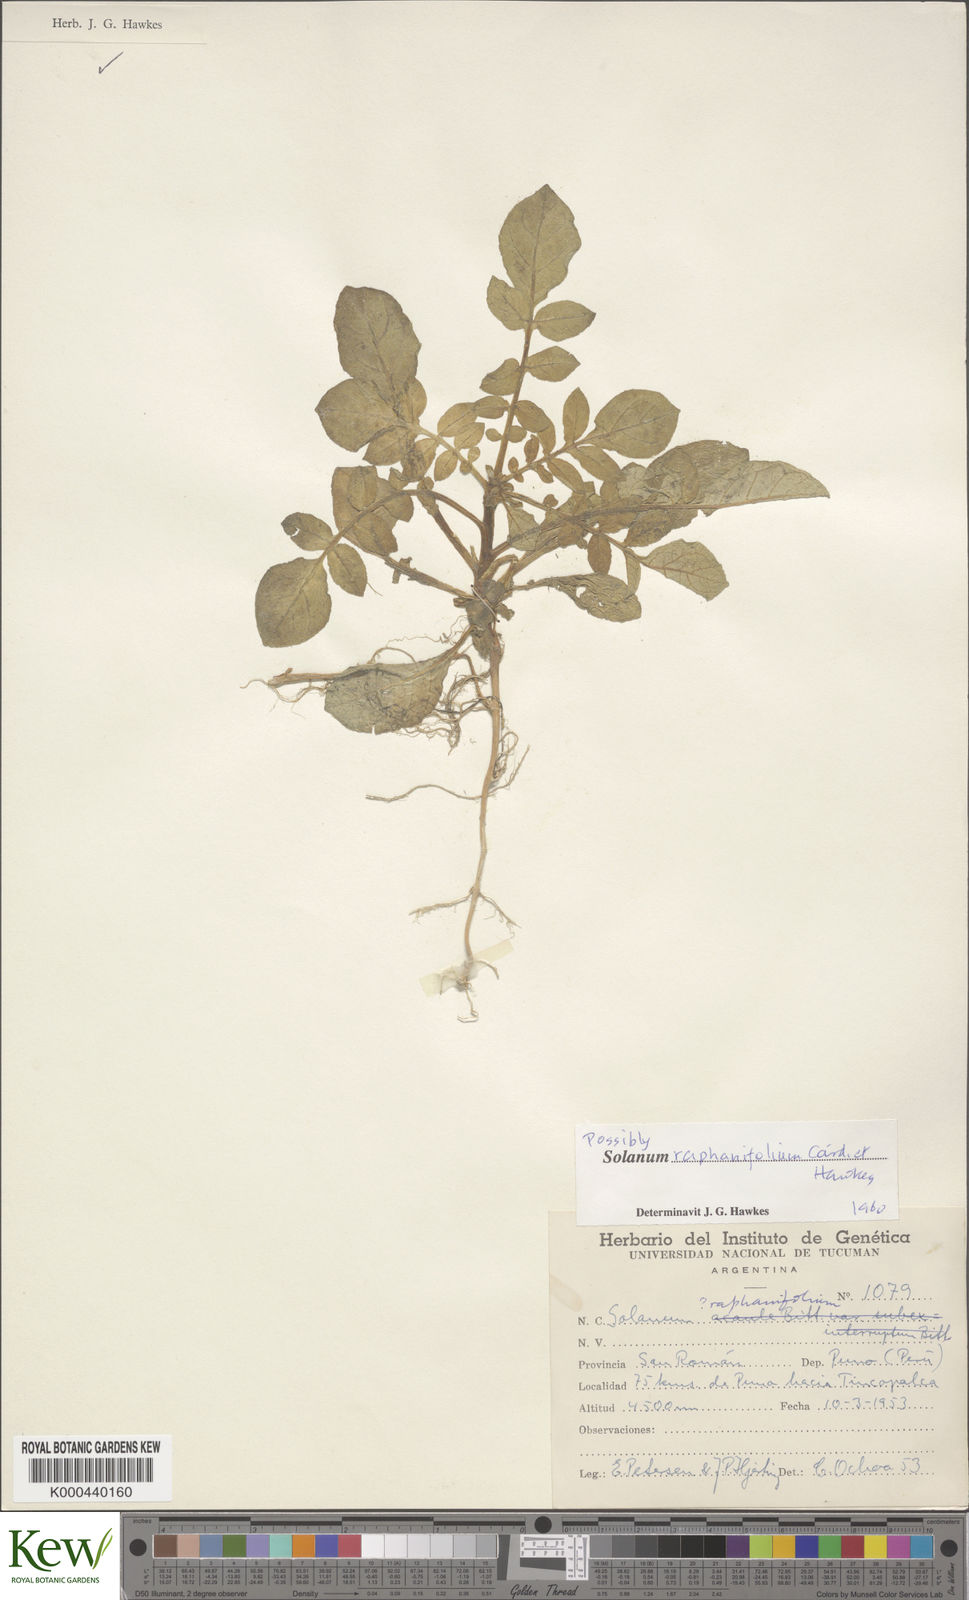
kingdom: Plantae
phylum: Tracheophyta
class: Magnoliopsida
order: Solanales
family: Solanaceae
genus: Solanum
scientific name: Solanum raphanifolium
